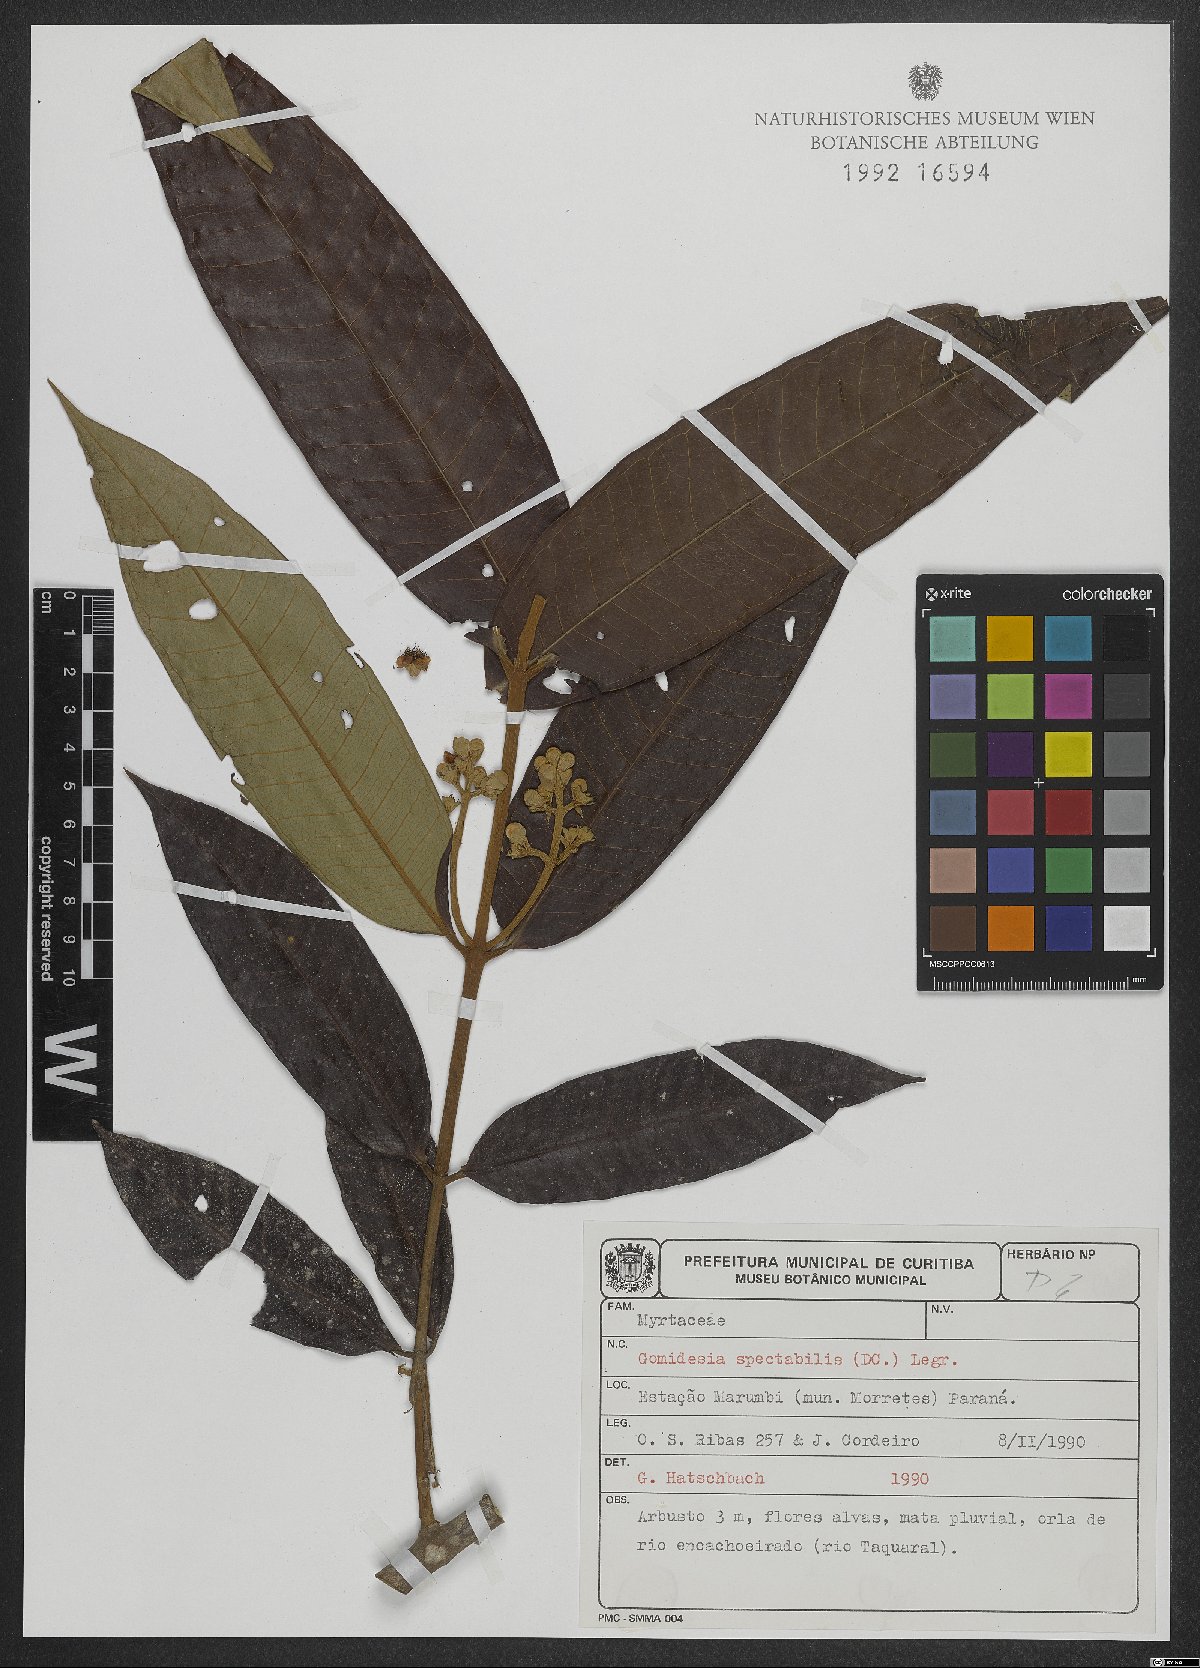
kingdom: Plantae
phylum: Tracheophyta
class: Magnoliopsida
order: Myrtales
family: Myrtaceae
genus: Myrcia
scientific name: Myrcia spectabilis
